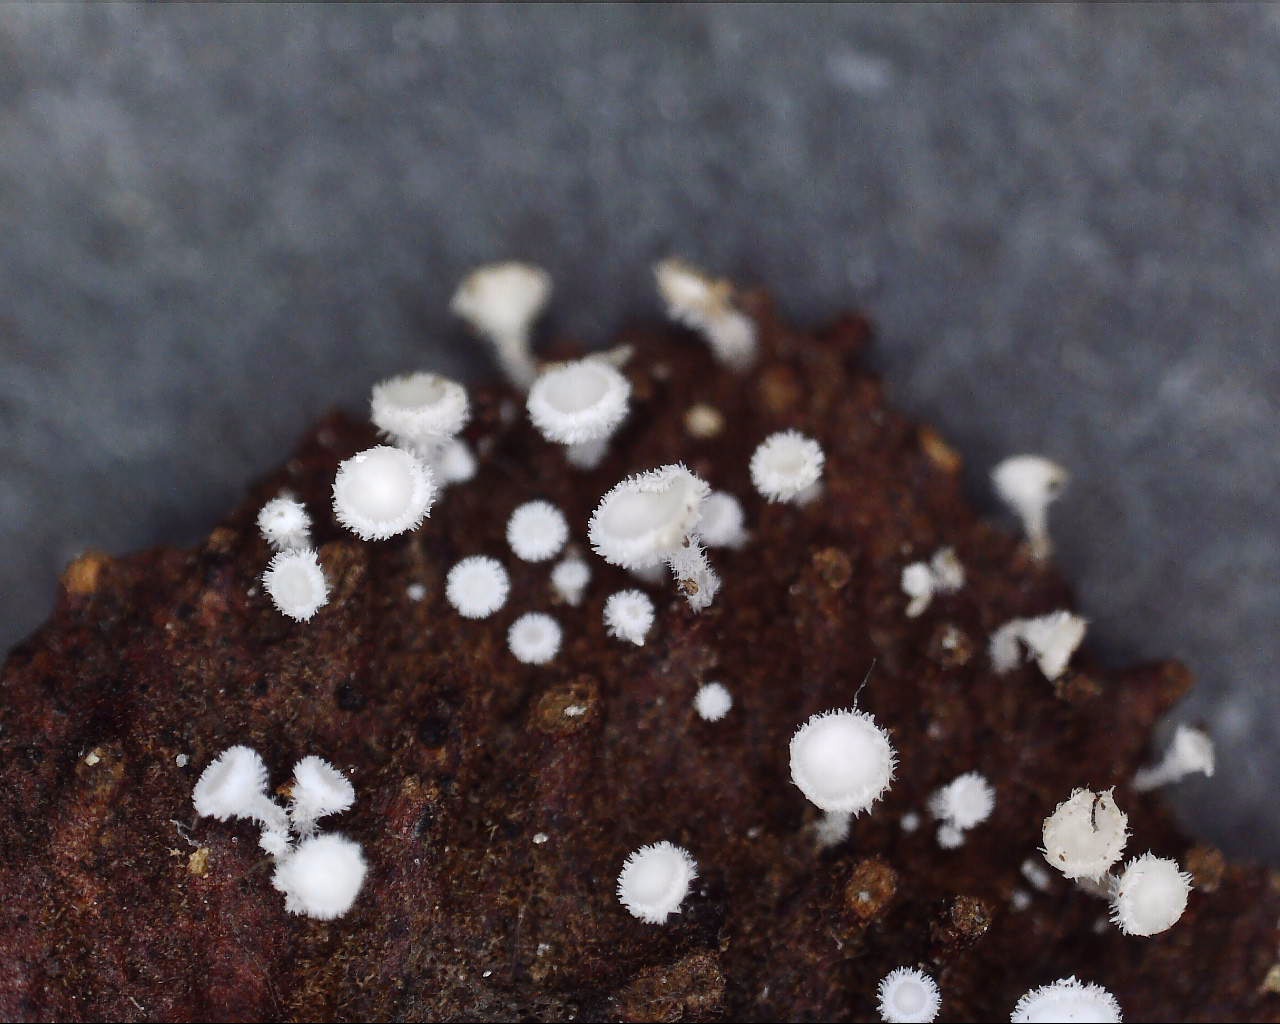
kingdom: Fungi
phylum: Ascomycota
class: Leotiomycetes
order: Helotiales
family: Lachnaceae
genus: Lachnum
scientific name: Lachnum virgineum
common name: jomfru-frynseskive
